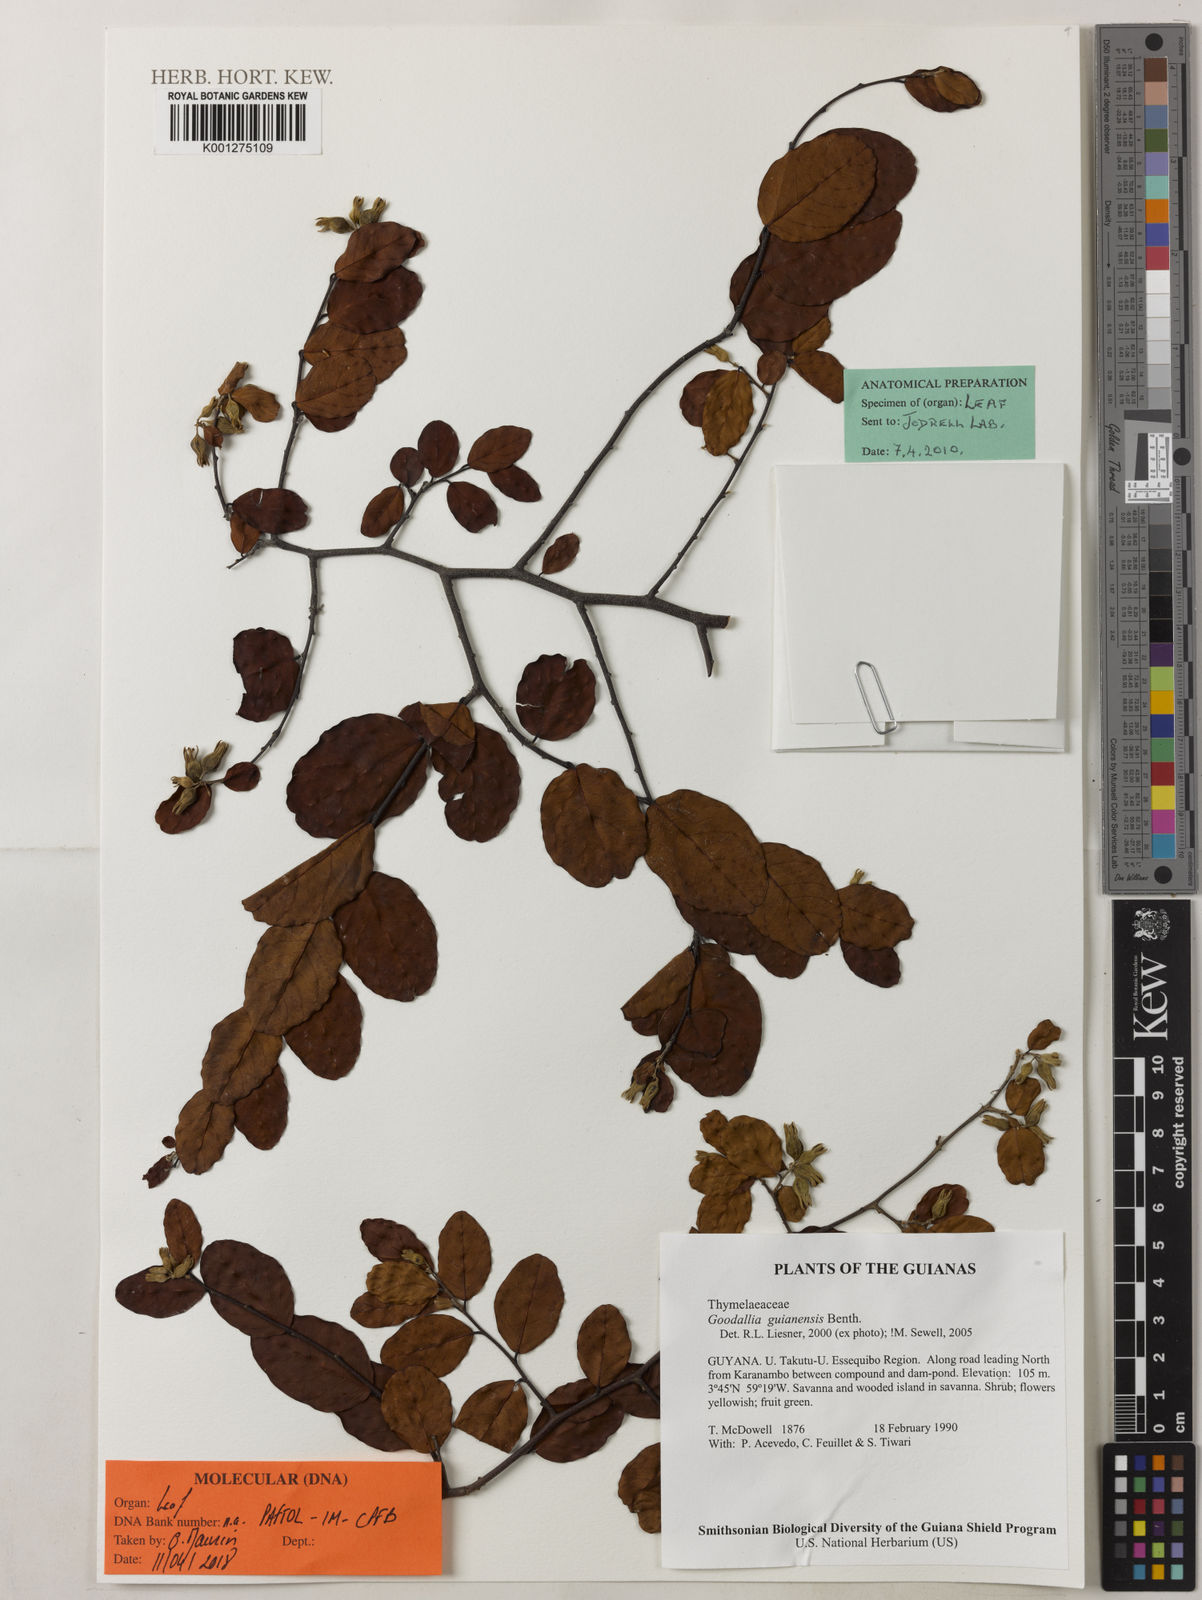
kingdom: Plantae
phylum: Tracheophyta
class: Magnoliopsida
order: Malvales
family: Thymelaeaceae
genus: Goodallia
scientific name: Goodallia guianensis
